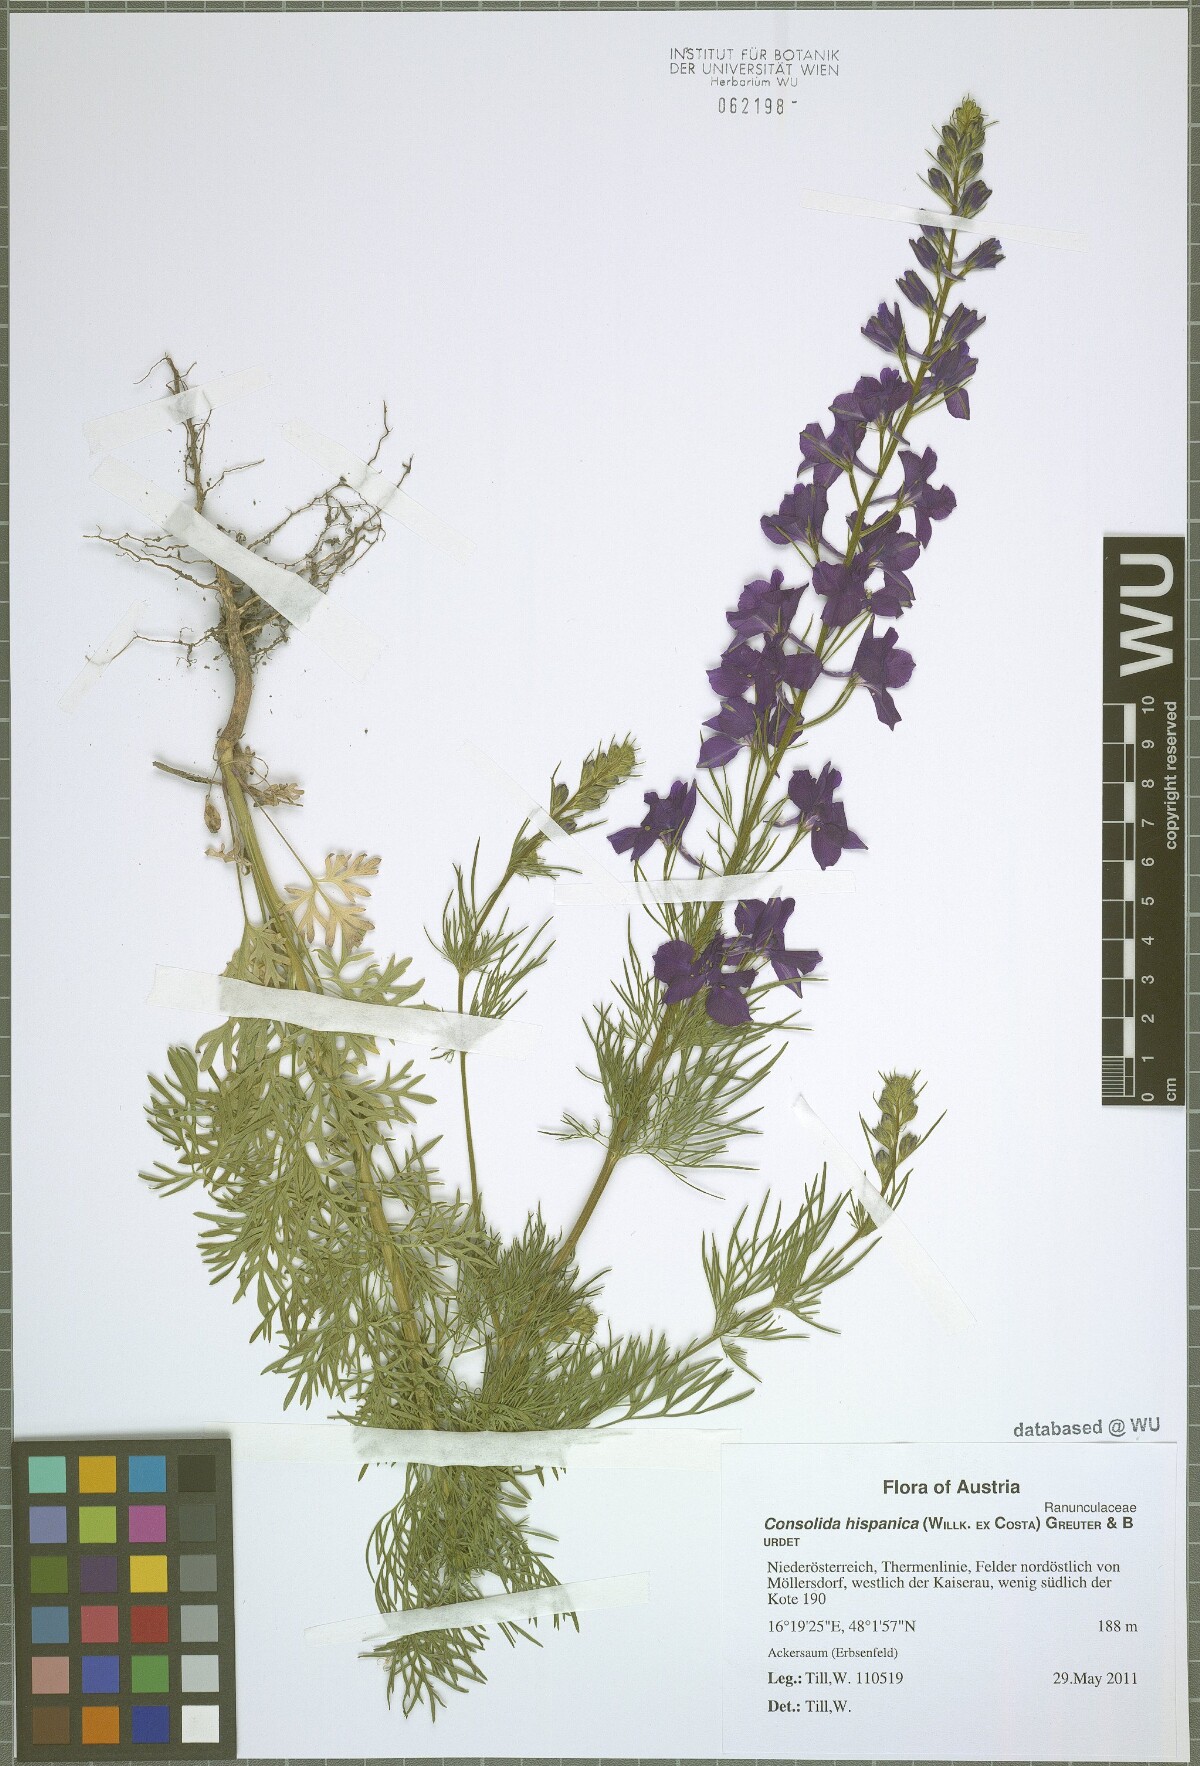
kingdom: Plantae
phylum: Tracheophyta
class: Magnoliopsida
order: Ranunculales
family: Ranunculaceae
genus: Delphinium
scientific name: Delphinium hispanicum
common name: Oriental knight's-spur
